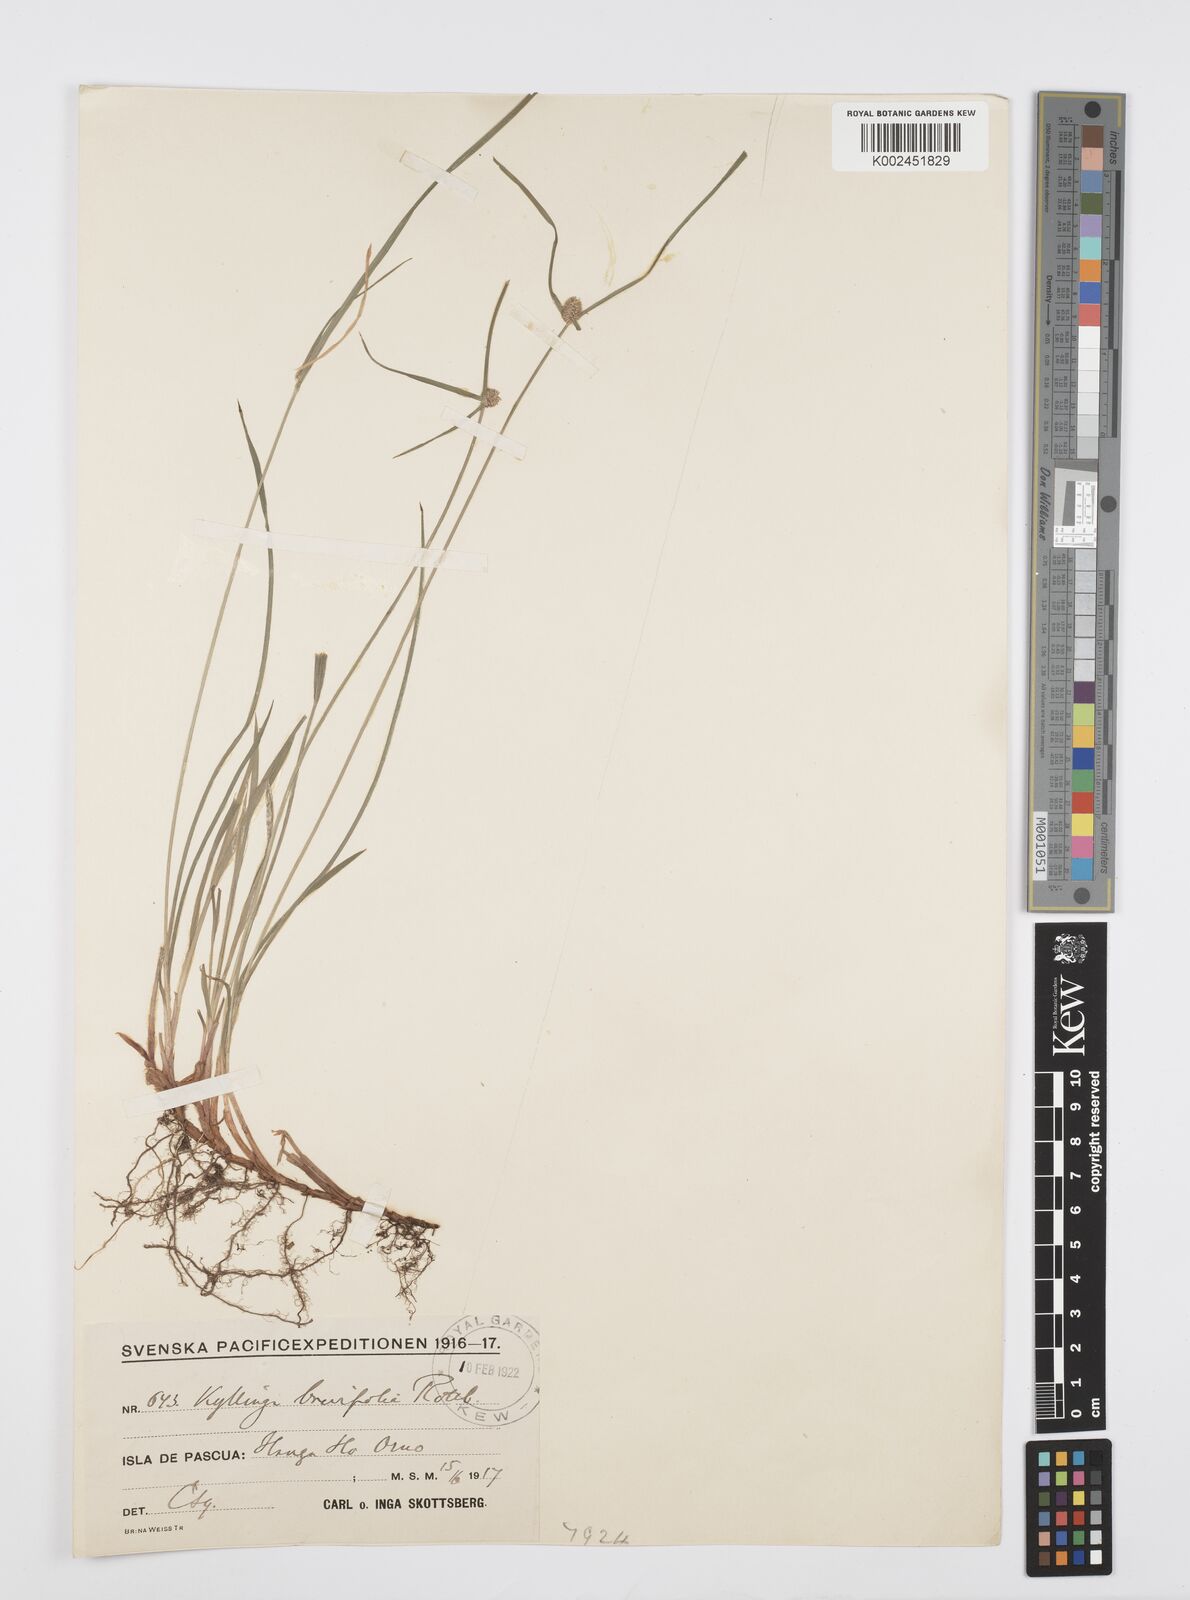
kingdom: Plantae
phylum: Tracheophyta
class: Liliopsida
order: Poales
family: Cyperaceae
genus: Cyperus
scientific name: Cyperus brevifolius
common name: Globe kyllinga
